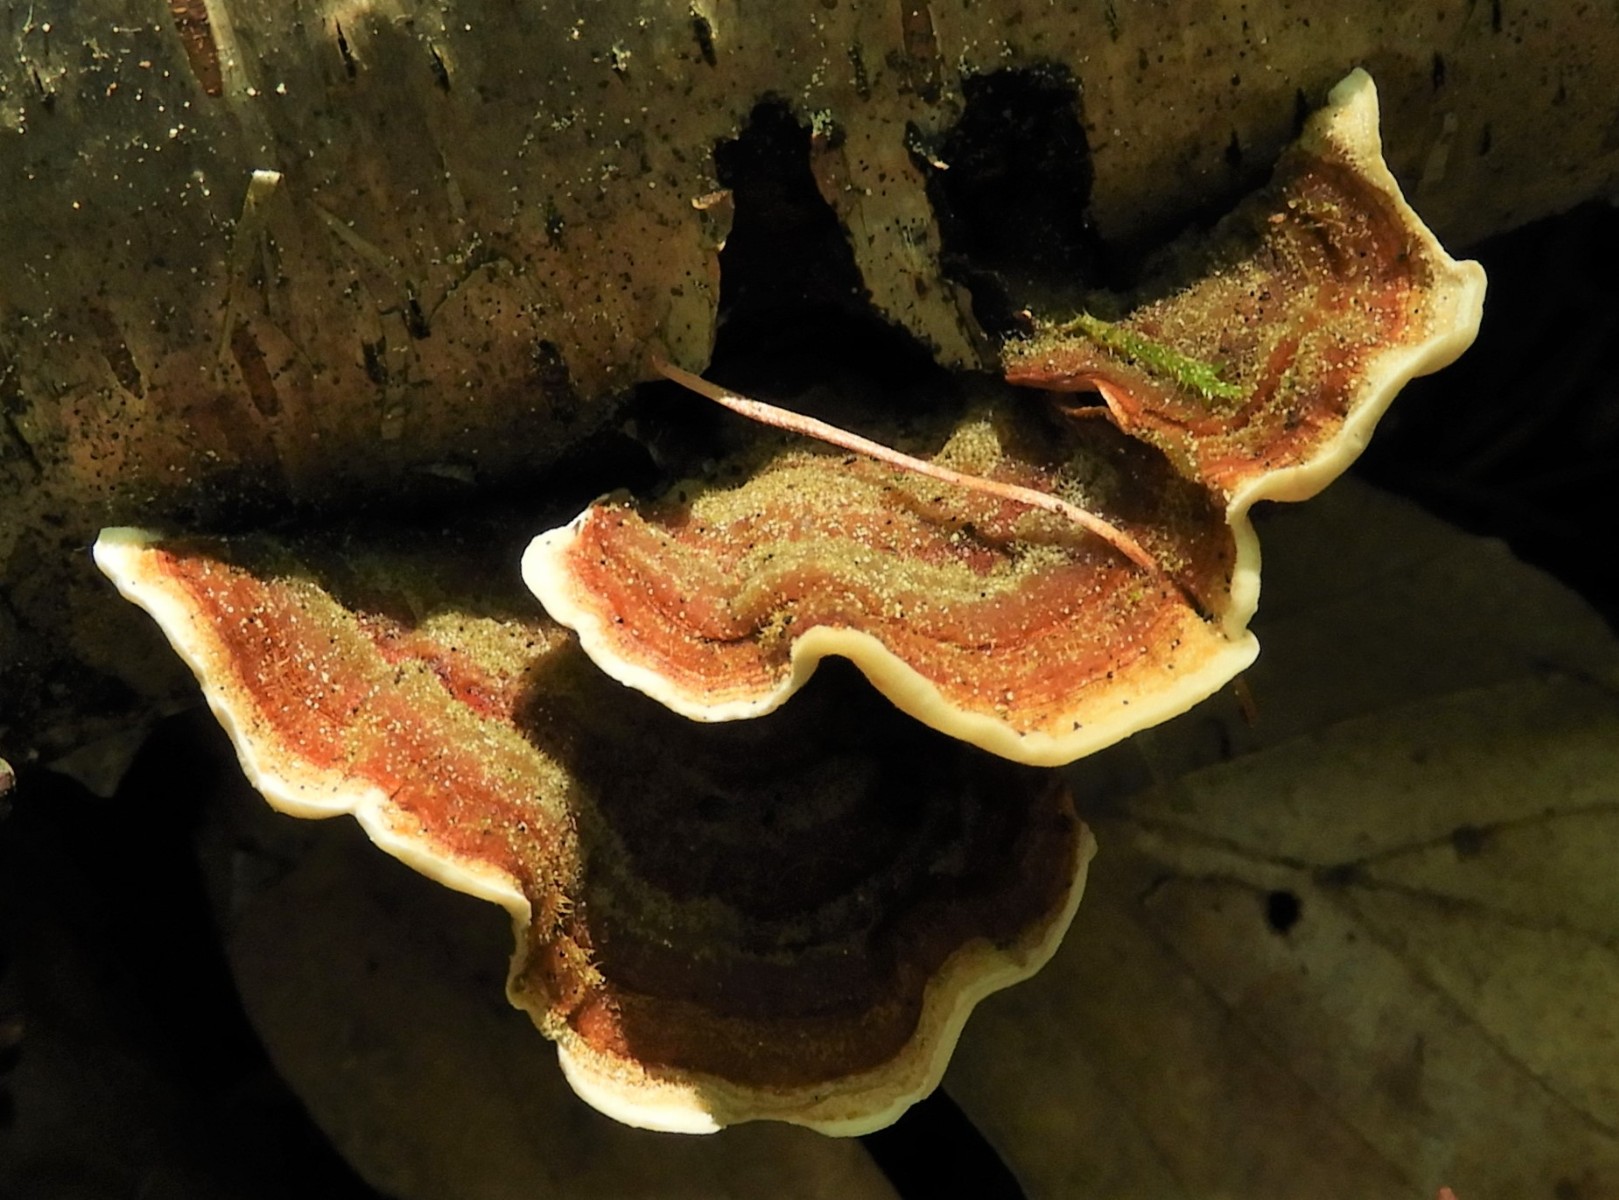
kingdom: Fungi
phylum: Basidiomycota
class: Agaricomycetes
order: Russulales
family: Stereaceae
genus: Stereum
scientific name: Stereum subtomentosum
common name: smuk lædersvamp
